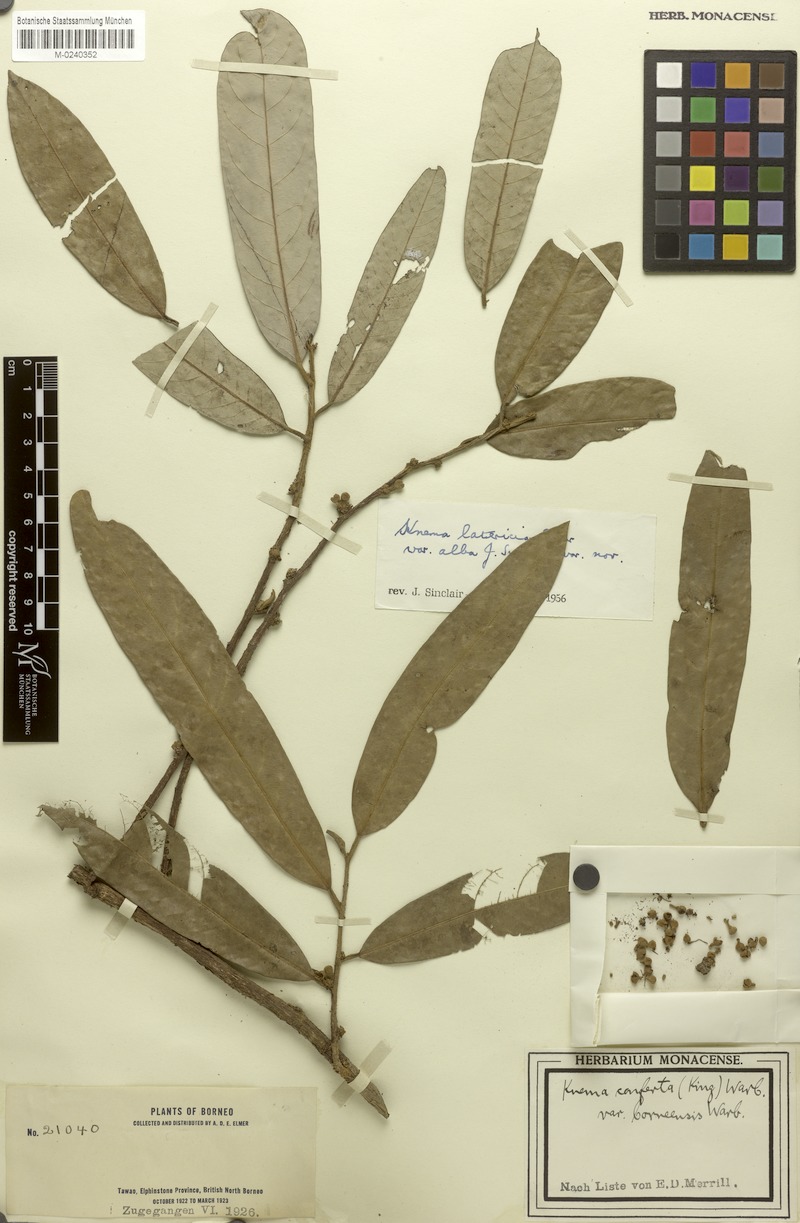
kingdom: Plantae
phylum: Tracheophyta
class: Magnoliopsida
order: Magnoliales
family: Myristicaceae
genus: Knema
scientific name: Knema latericia
